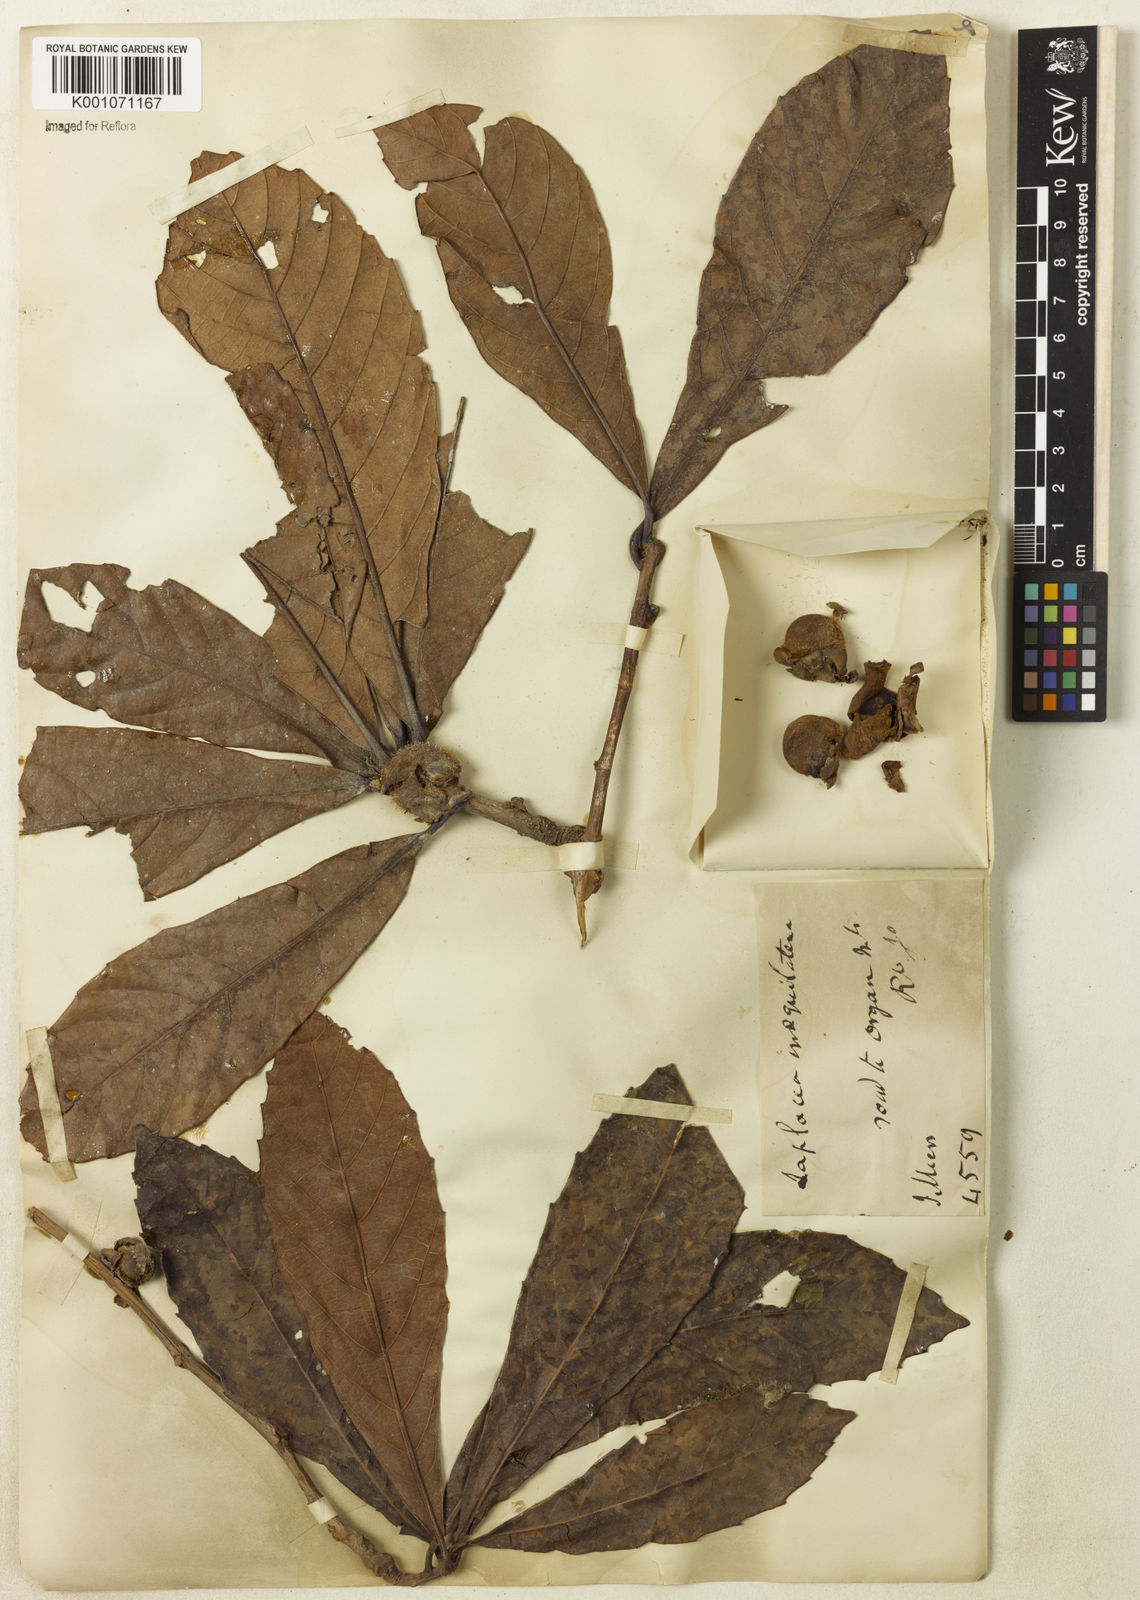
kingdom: Plantae
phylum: Tracheophyta
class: Magnoliopsida
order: Dilleniales
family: Dilleniaceae
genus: Doliocarpus
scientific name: Doliocarpus grandiflorus
